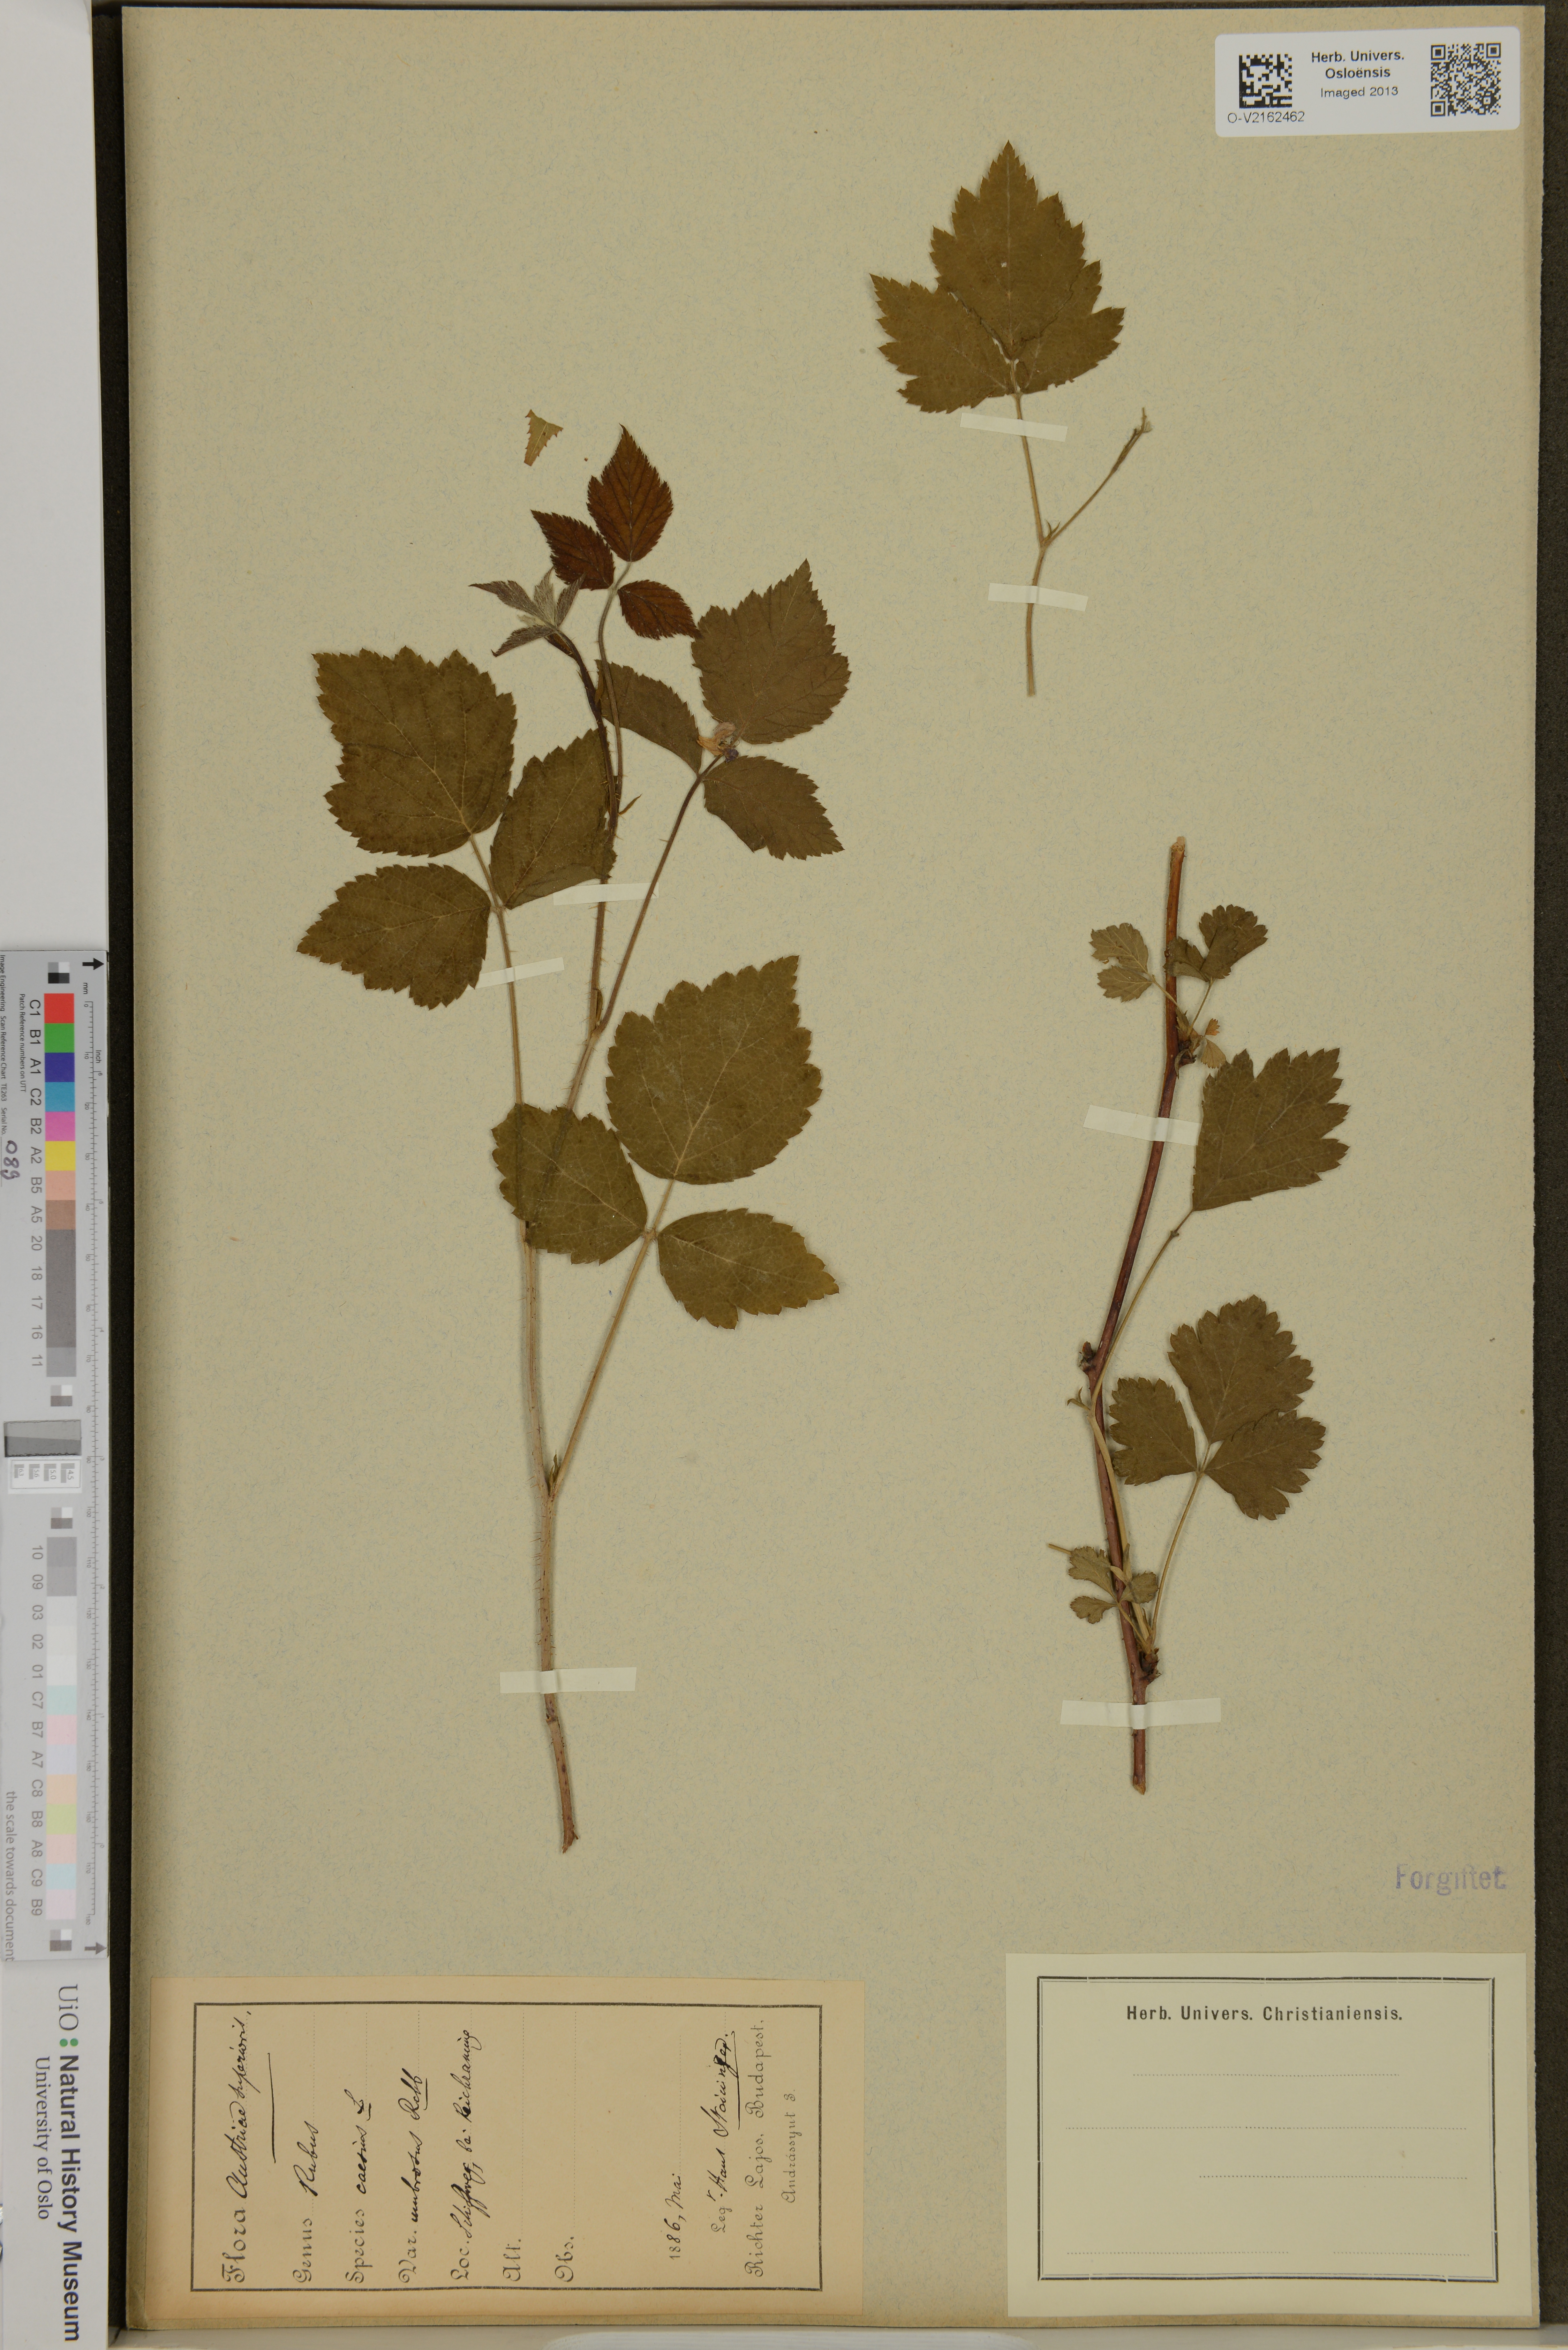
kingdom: Plantae
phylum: Tracheophyta
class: Magnoliopsida
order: Rosales
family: Rosaceae
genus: Rubus
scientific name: Rubus caesius
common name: Dewberry
